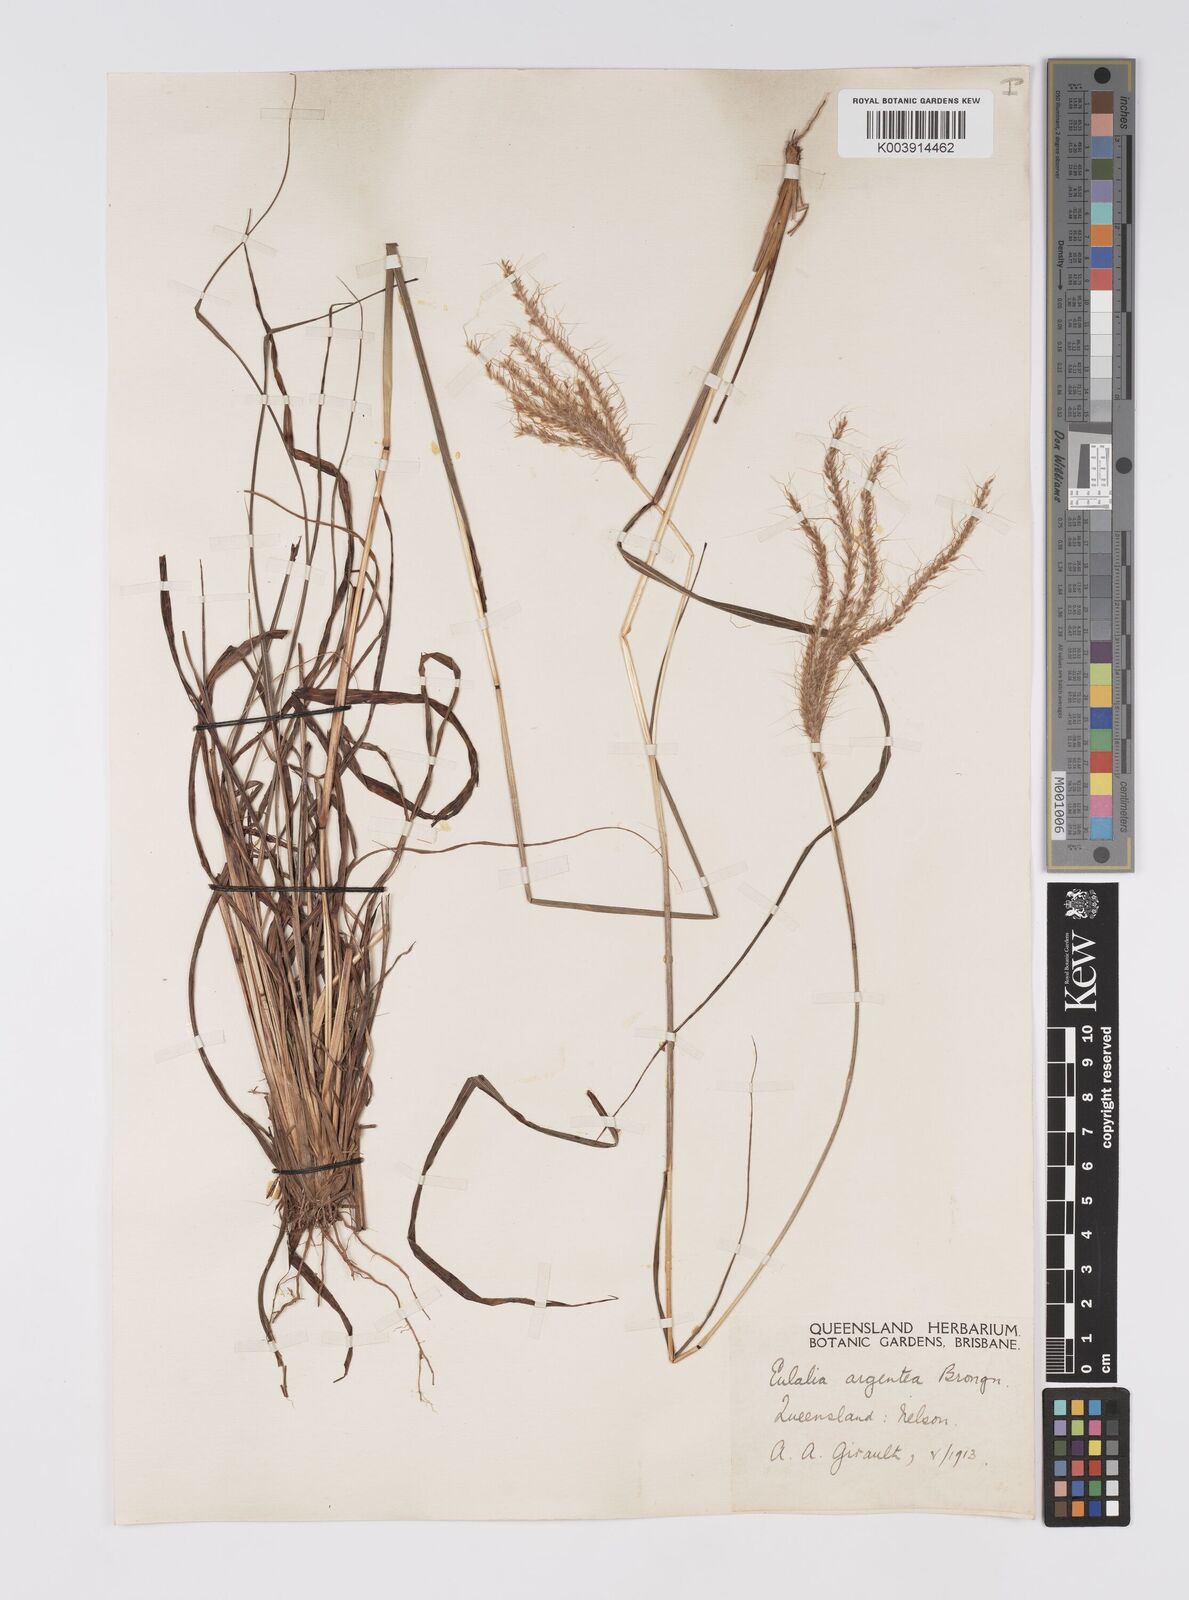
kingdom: Plantae
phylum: Tracheophyta
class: Liliopsida
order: Poales
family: Poaceae
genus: Pseudopogonatherum
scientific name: Pseudopogonatherum trispicatum
